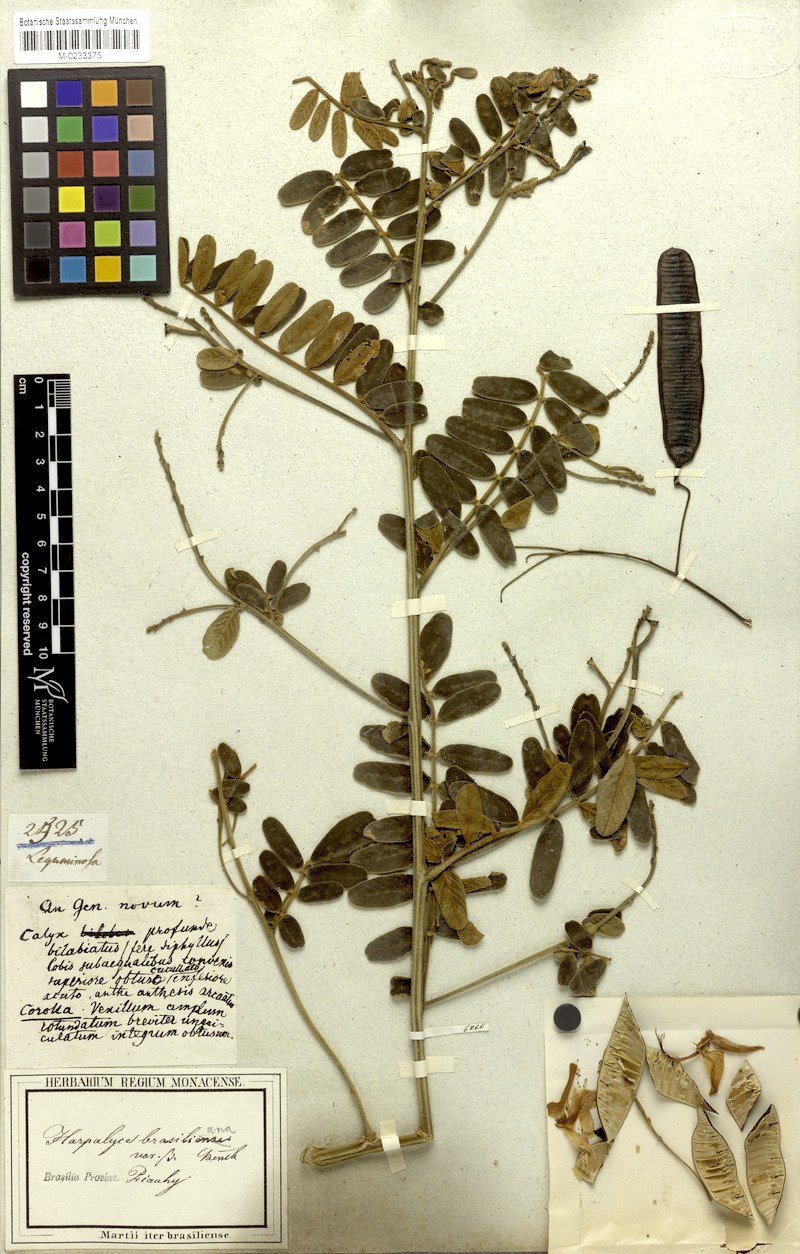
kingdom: Plantae
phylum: Tracheophyta
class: Magnoliopsida
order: Fabales
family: Fabaceae
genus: Harpalyce
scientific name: Harpalyce brasiliana
